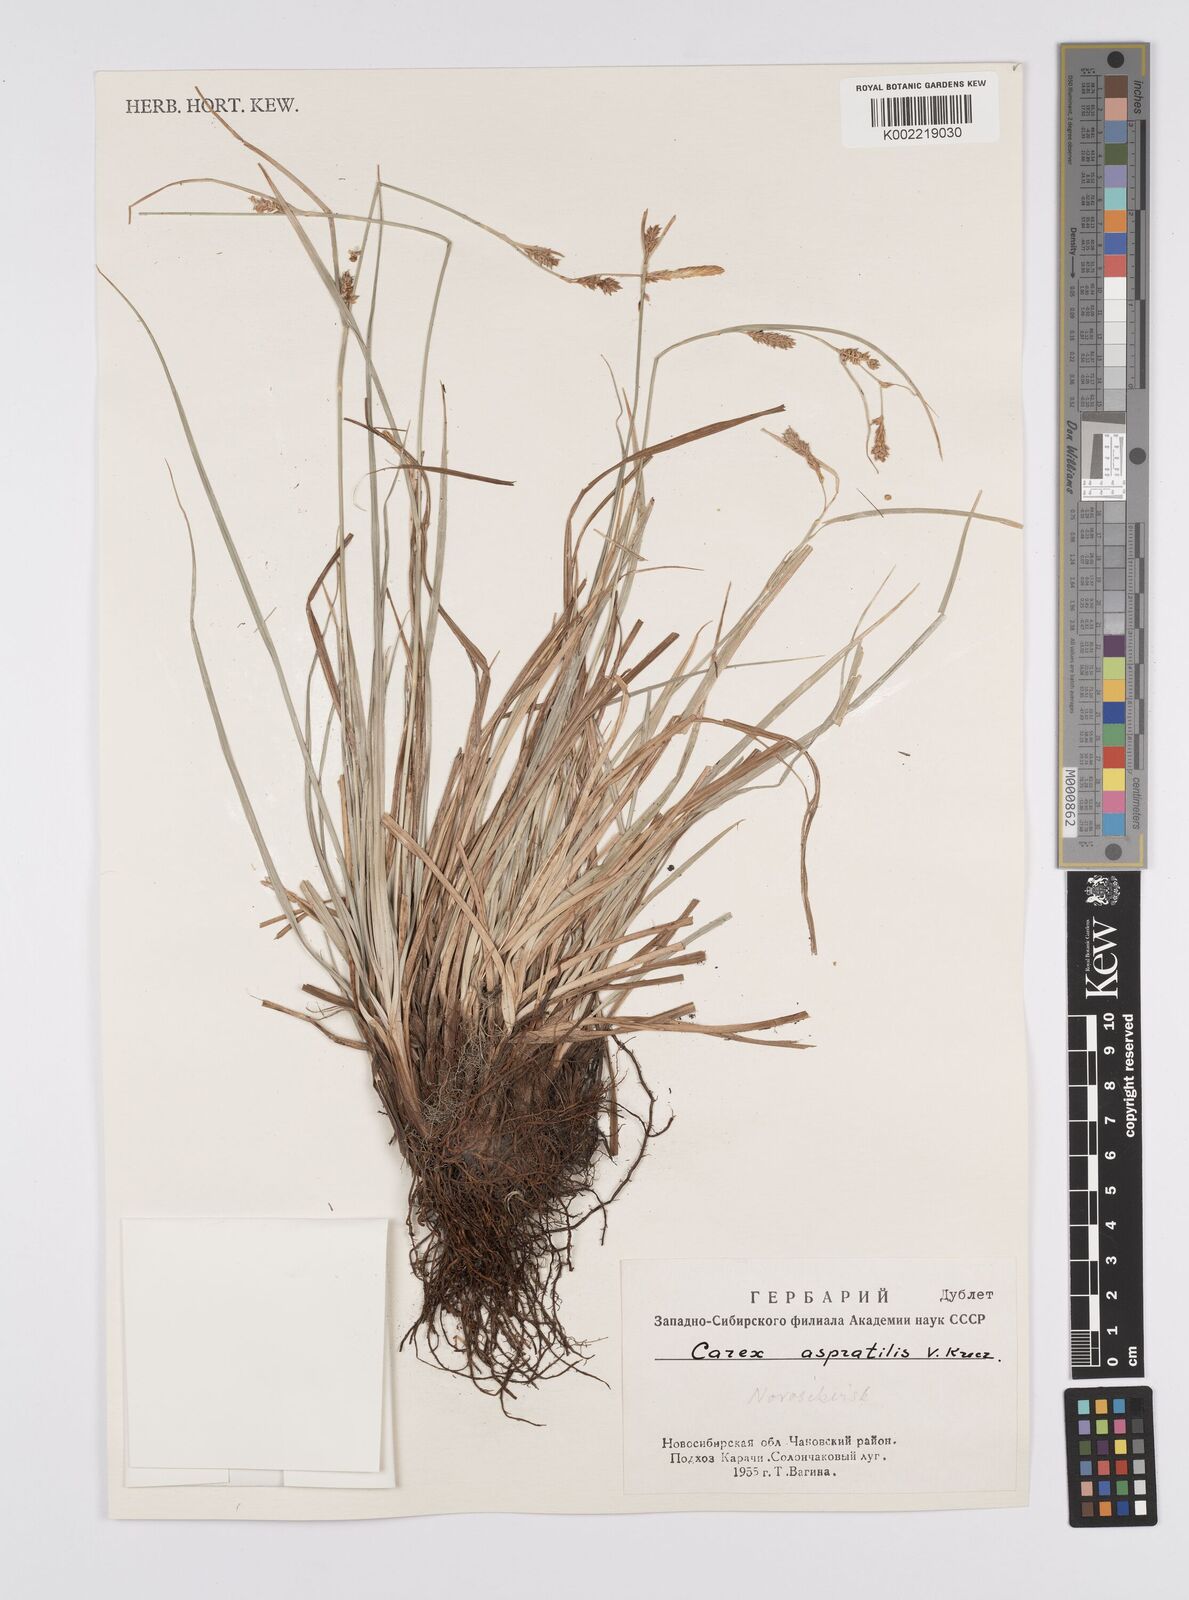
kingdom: Plantae
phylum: Tracheophyta
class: Liliopsida
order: Poales
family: Cyperaceae
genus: Carex
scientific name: Carex diluta
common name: Sedge
